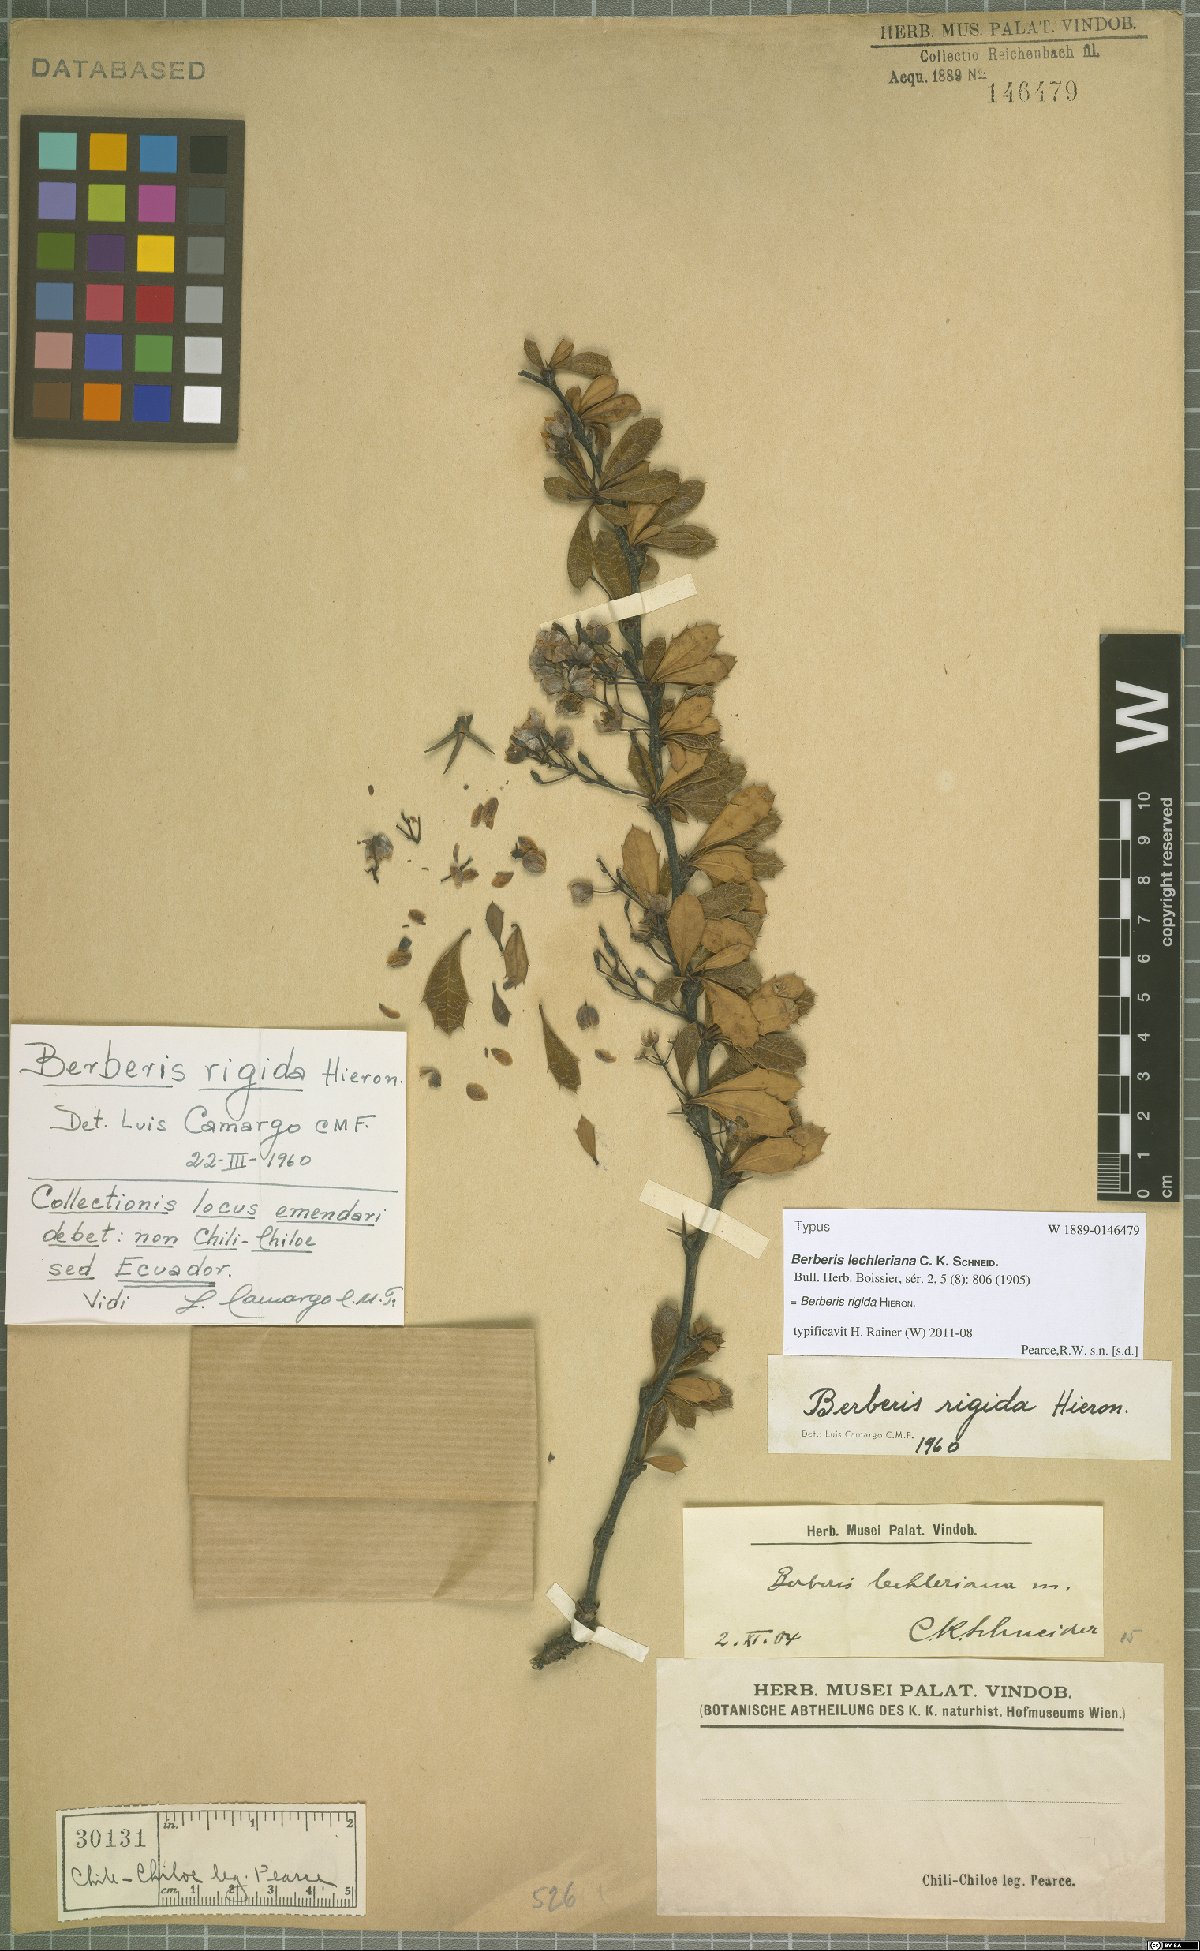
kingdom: Plantae
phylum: Tracheophyta
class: Magnoliopsida
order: Ranunculales
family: Berberidaceae
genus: Berberis
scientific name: Berberis rigida
